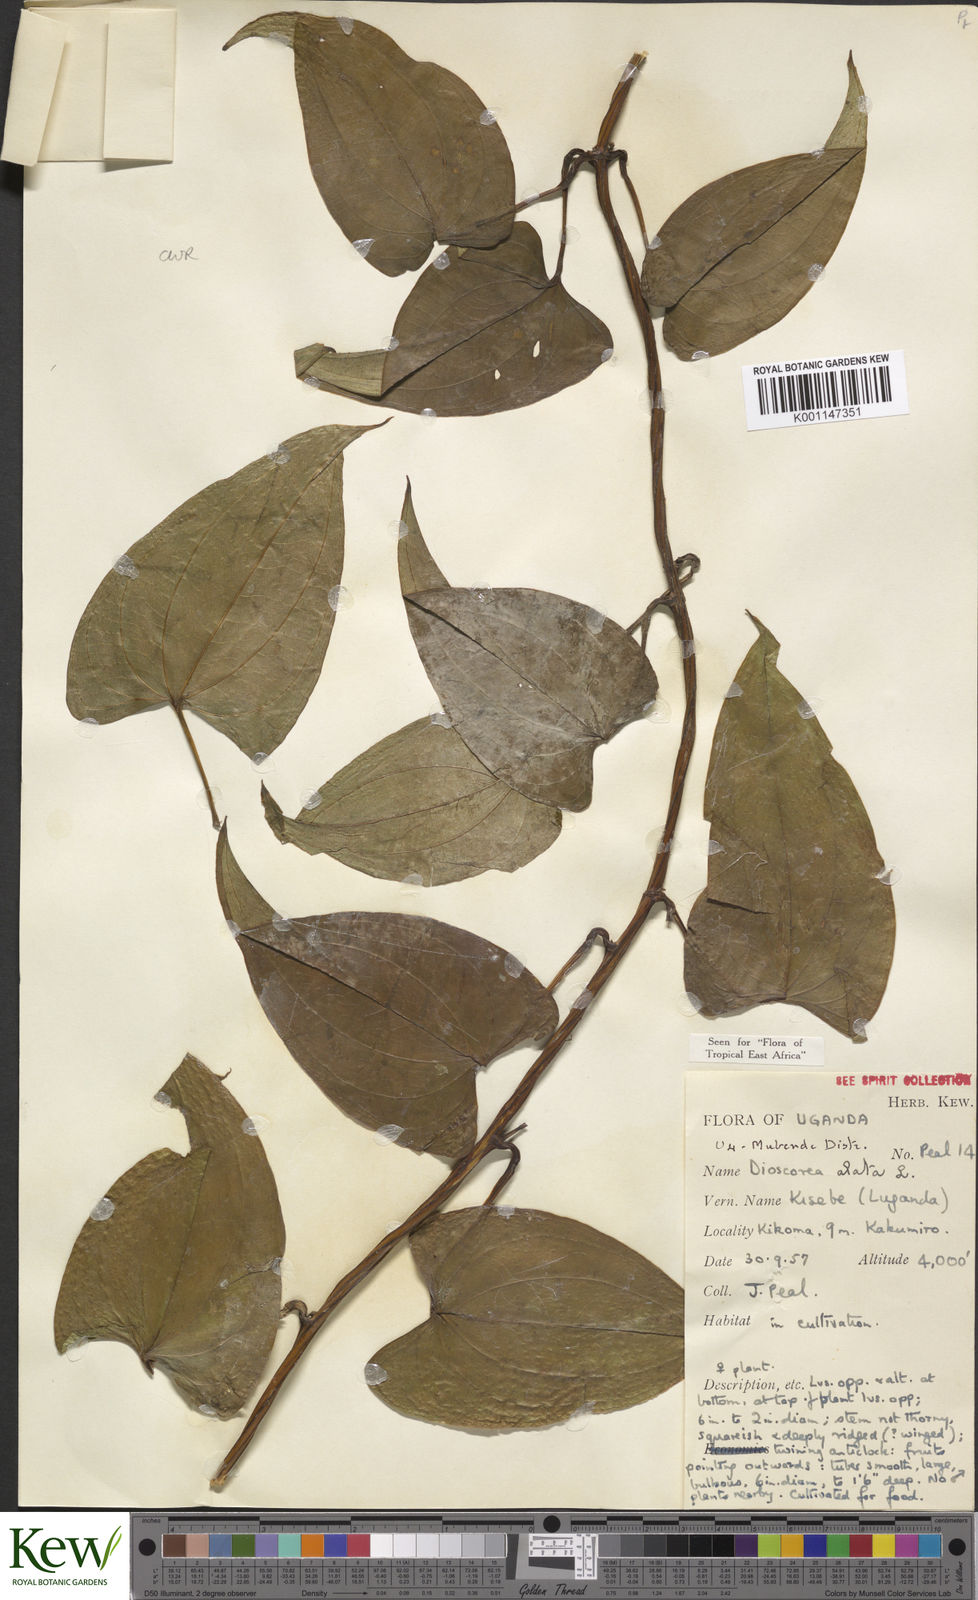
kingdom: Plantae
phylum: Tracheophyta
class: Liliopsida
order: Dioscoreales
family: Dioscoreaceae
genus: Dioscorea
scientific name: Dioscorea alata
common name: Water yam
